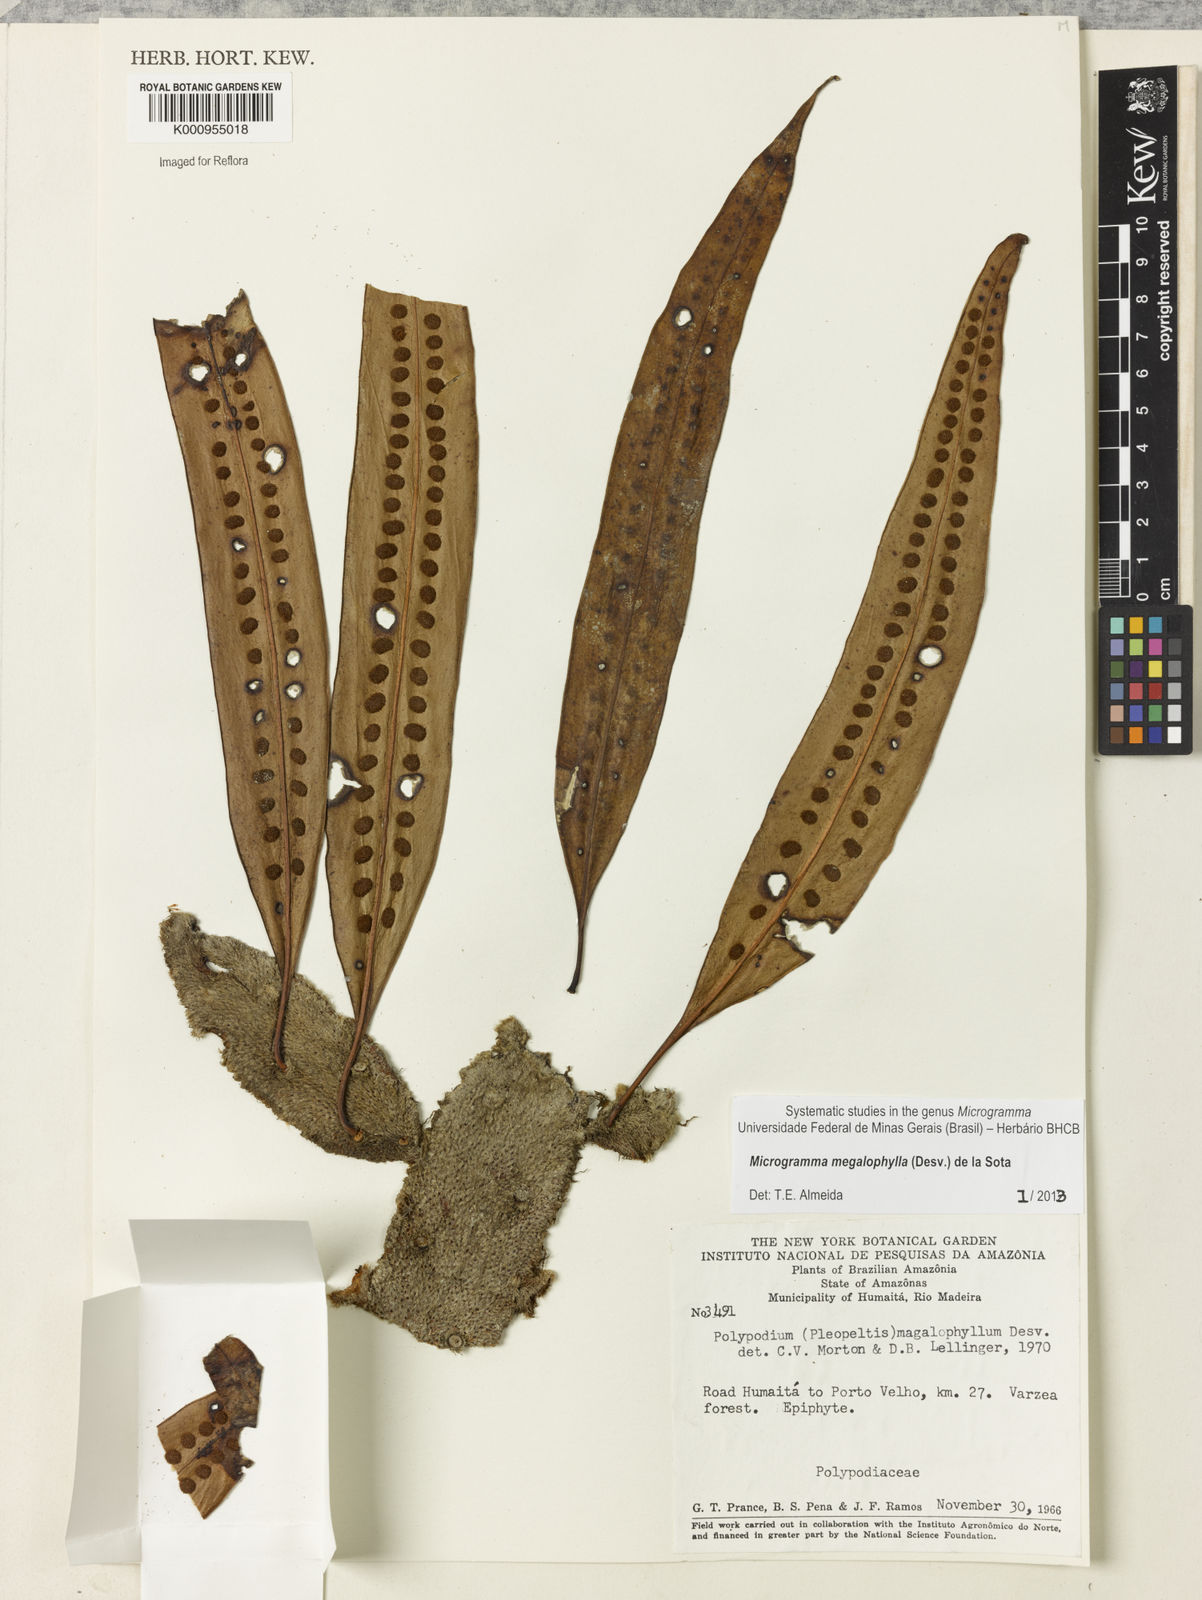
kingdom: Plantae
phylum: Tracheophyta
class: Polypodiopsida
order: Polypodiales
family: Polypodiaceae
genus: Microgramma
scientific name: Microgramma megalophylla
